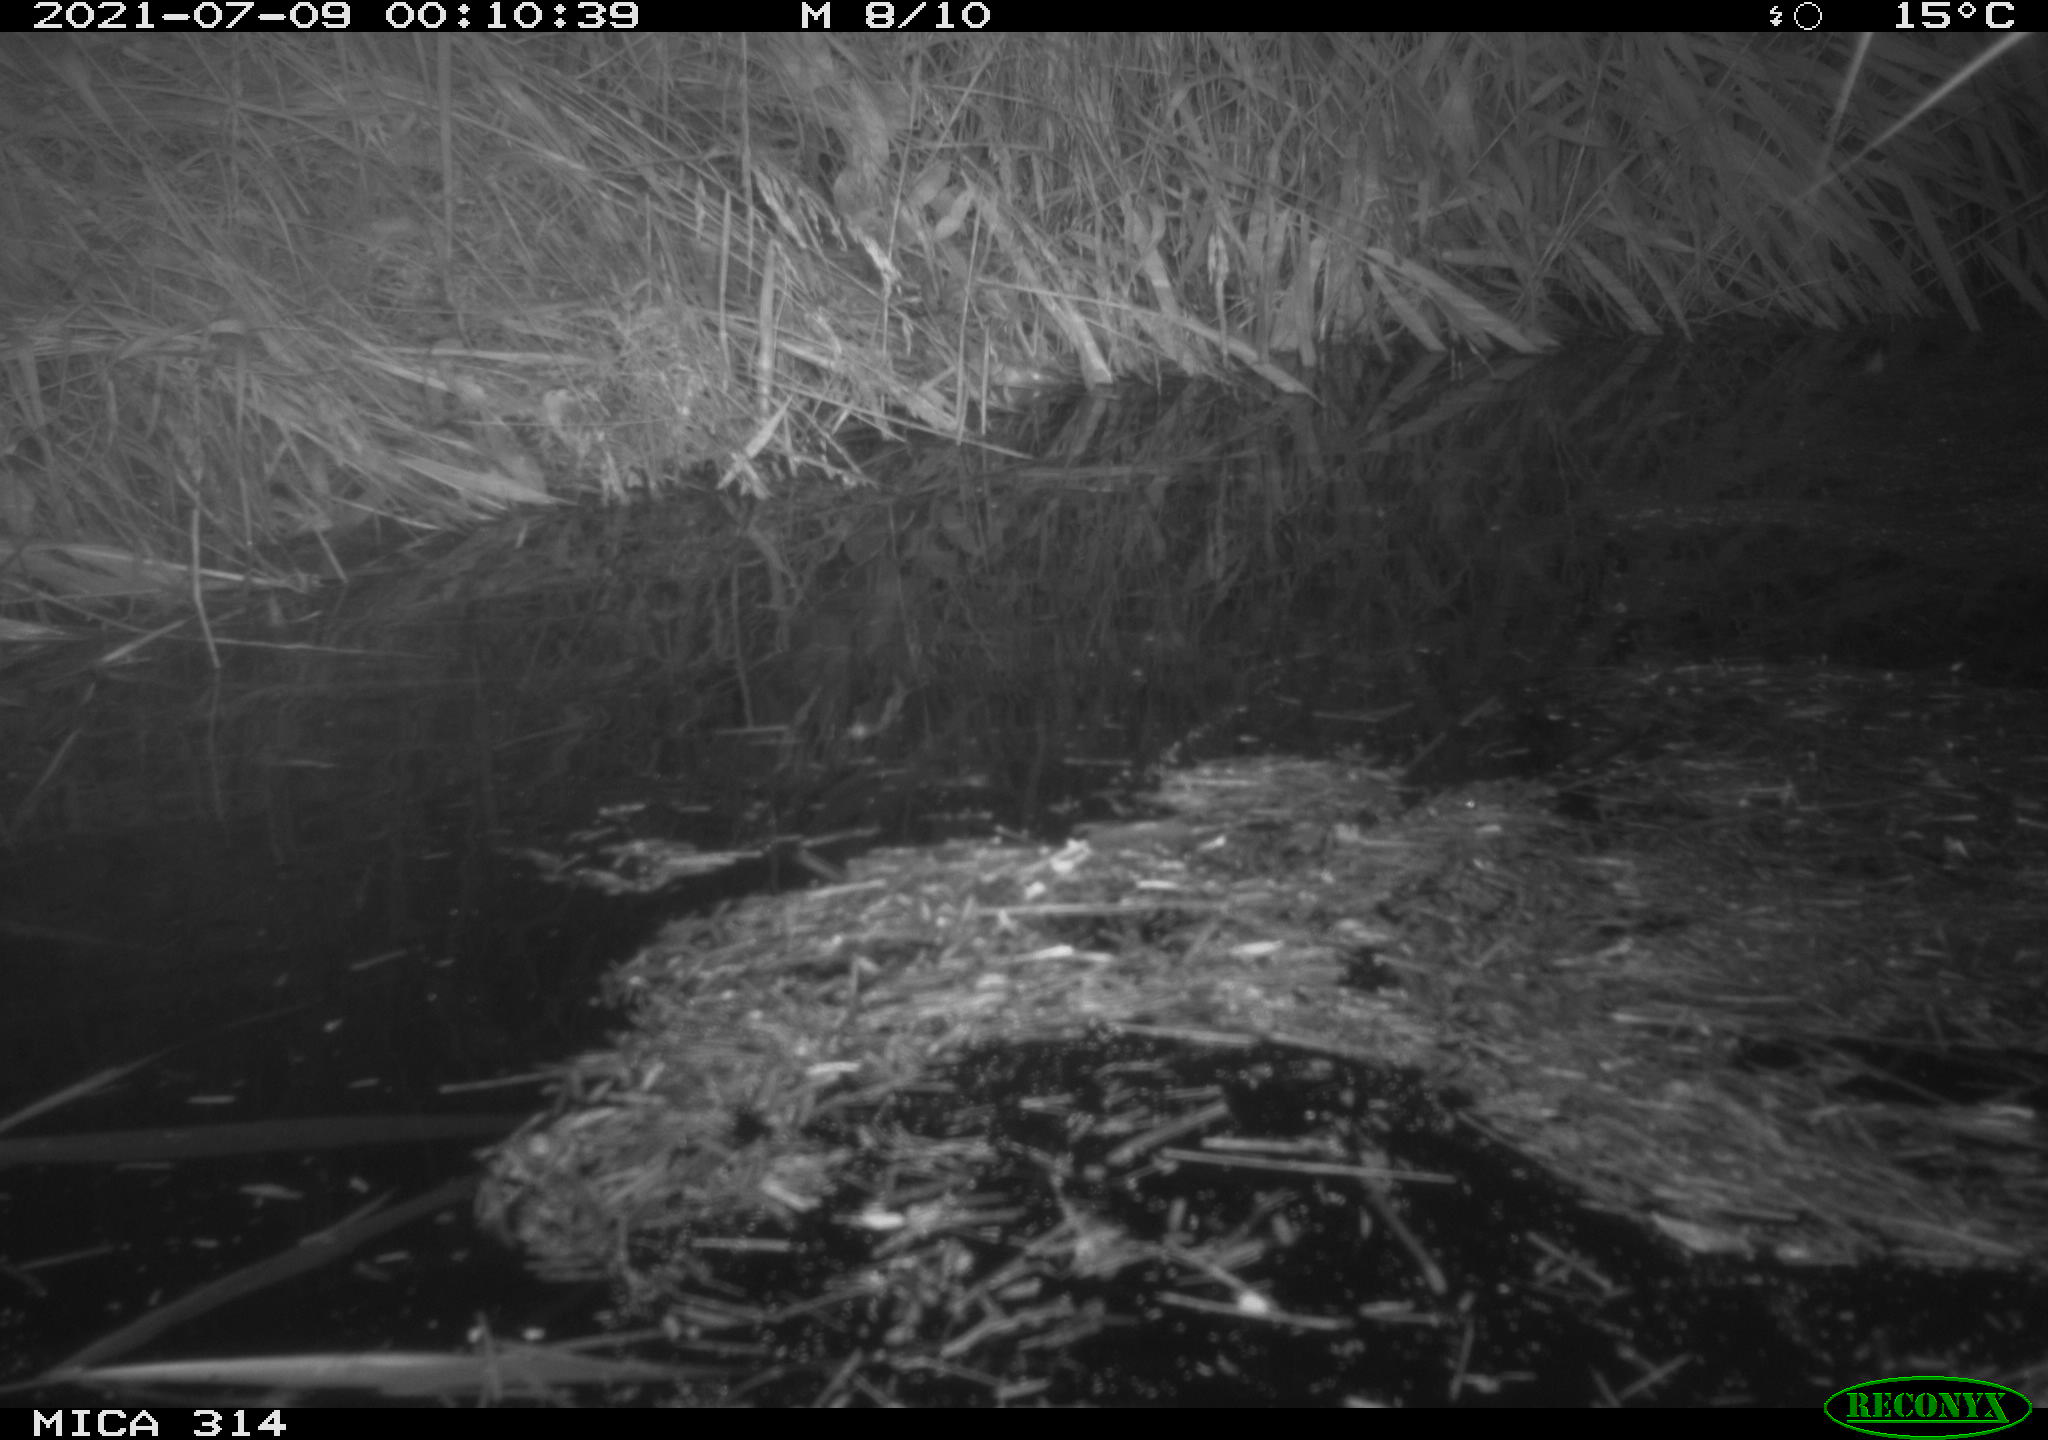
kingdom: Animalia
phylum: Chordata
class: Mammalia
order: Rodentia
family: Muridae
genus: Rattus
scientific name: Rattus norvegicus
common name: Brown rat
